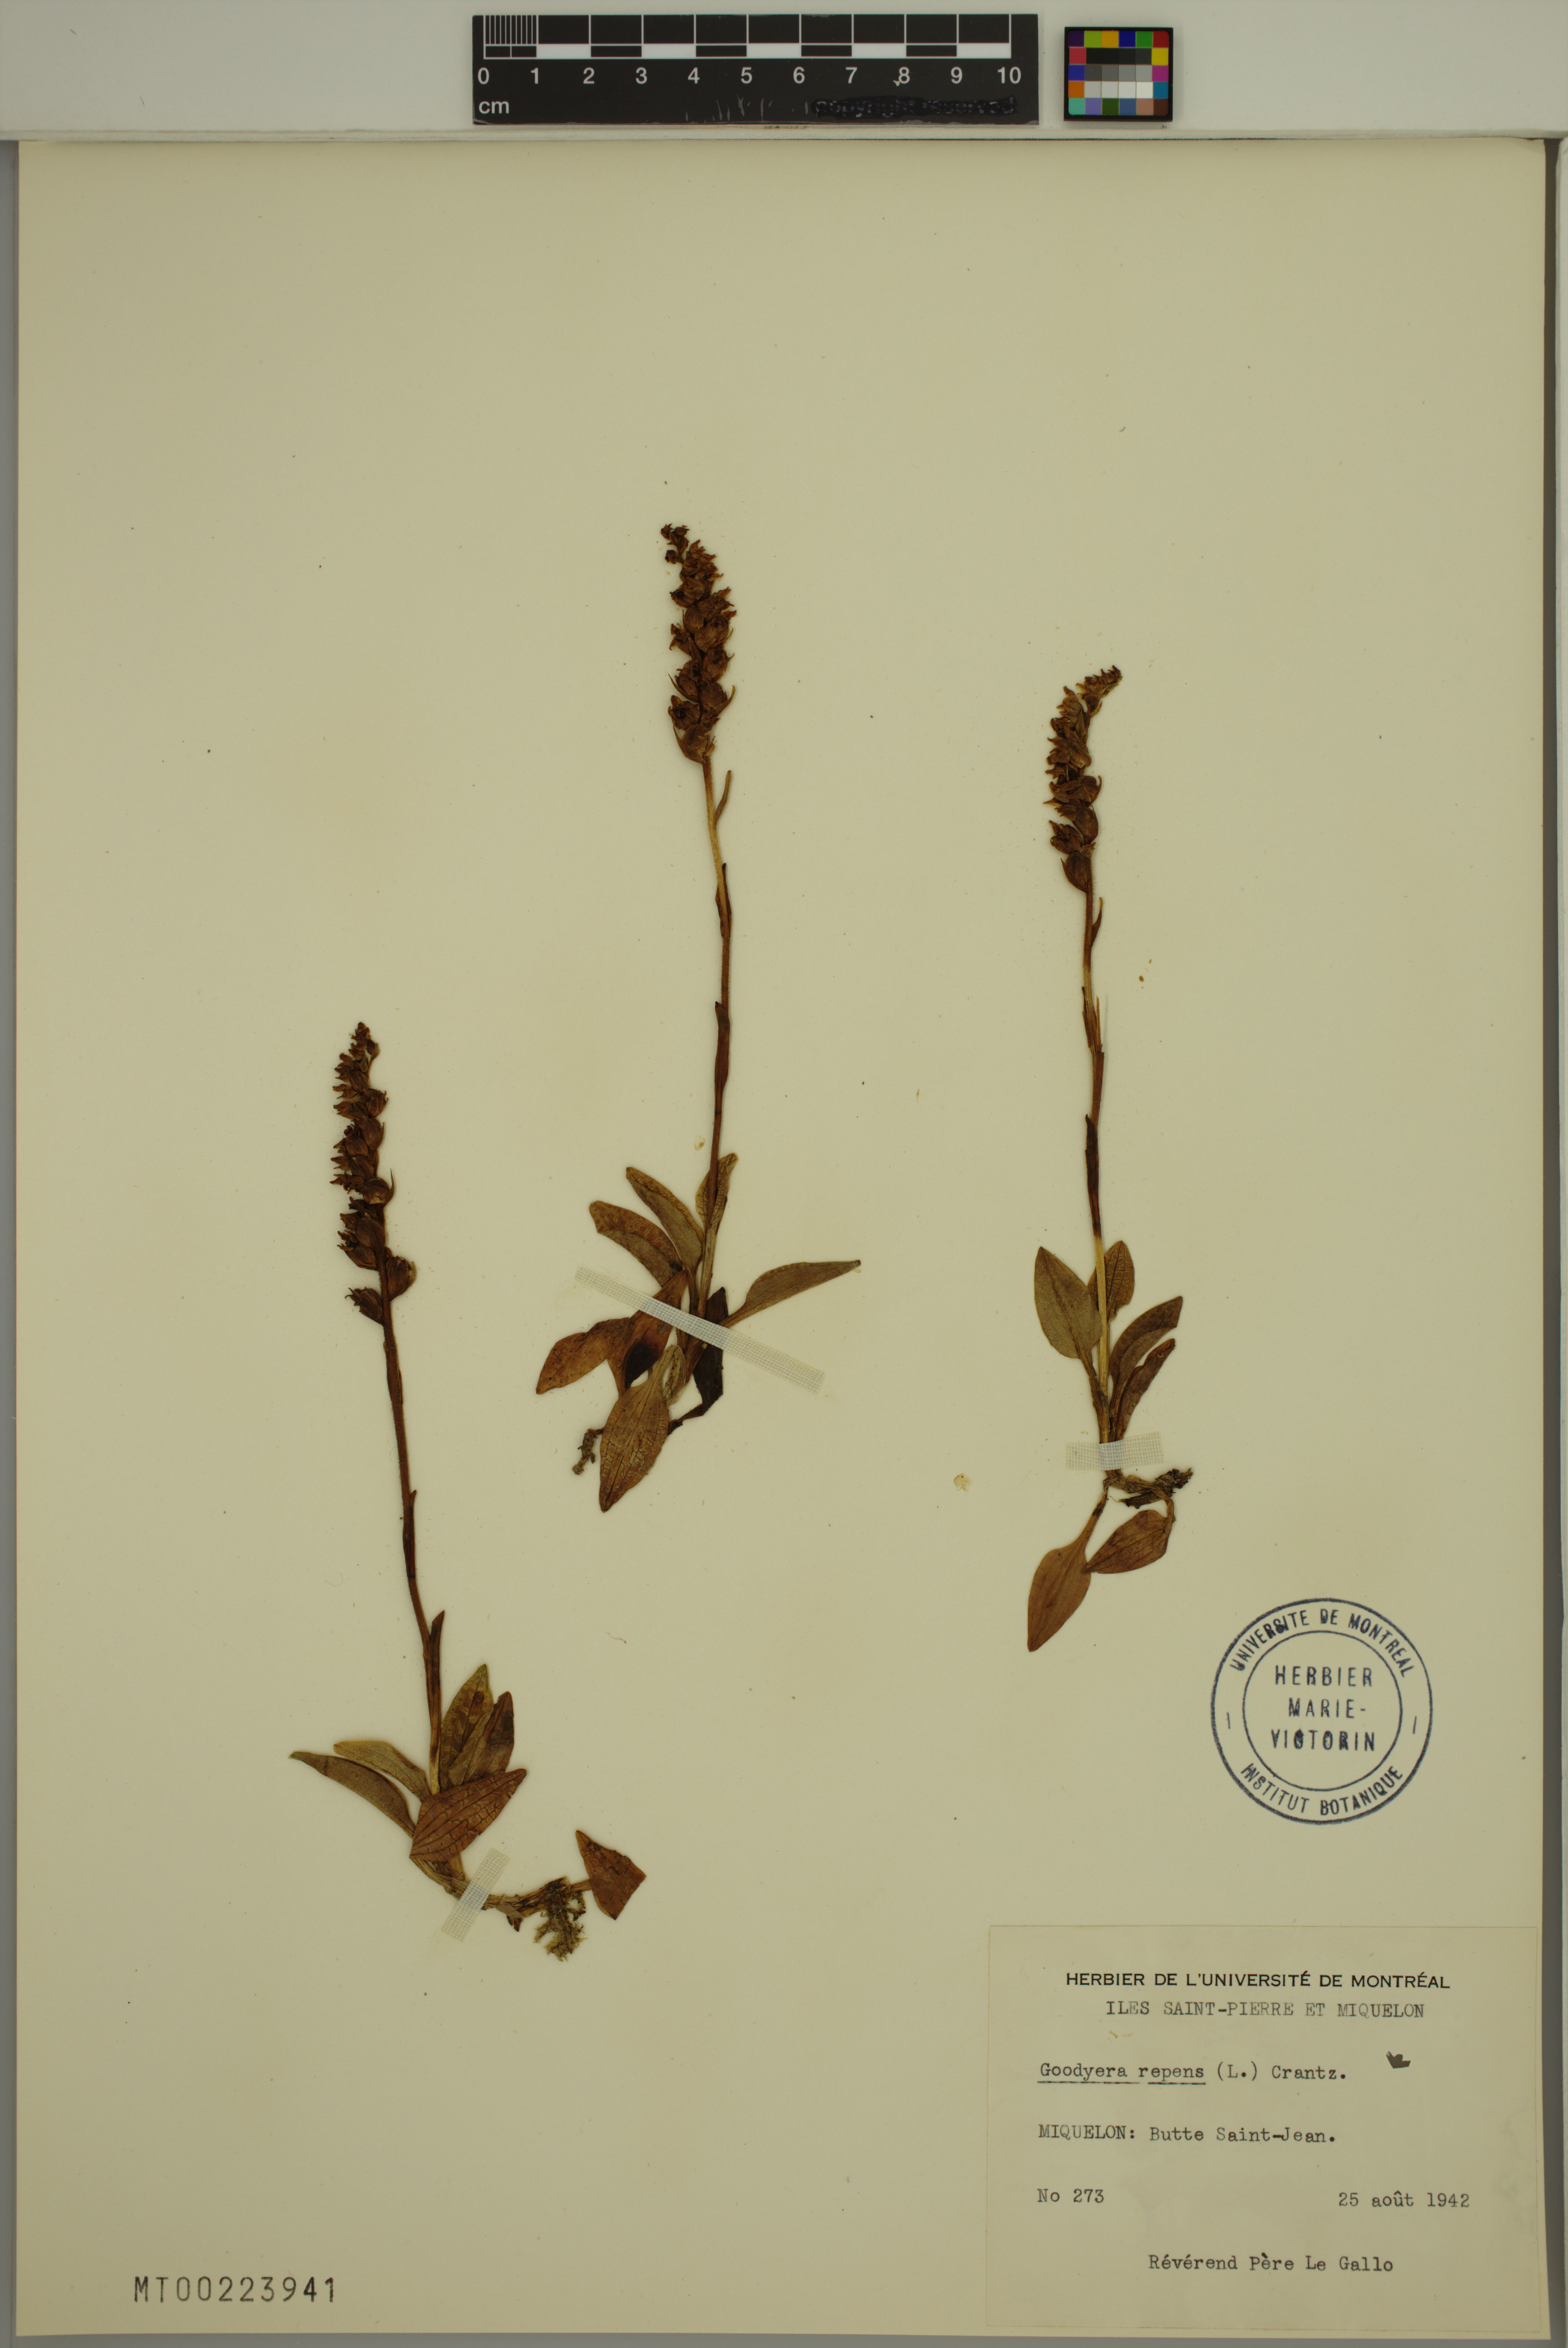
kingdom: Plantae
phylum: Tracheophyta
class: Liliopsida
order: Asparagales
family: Orchidaceae
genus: Goodyera
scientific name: Goodyera repens
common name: Creeping lady's-tresses
